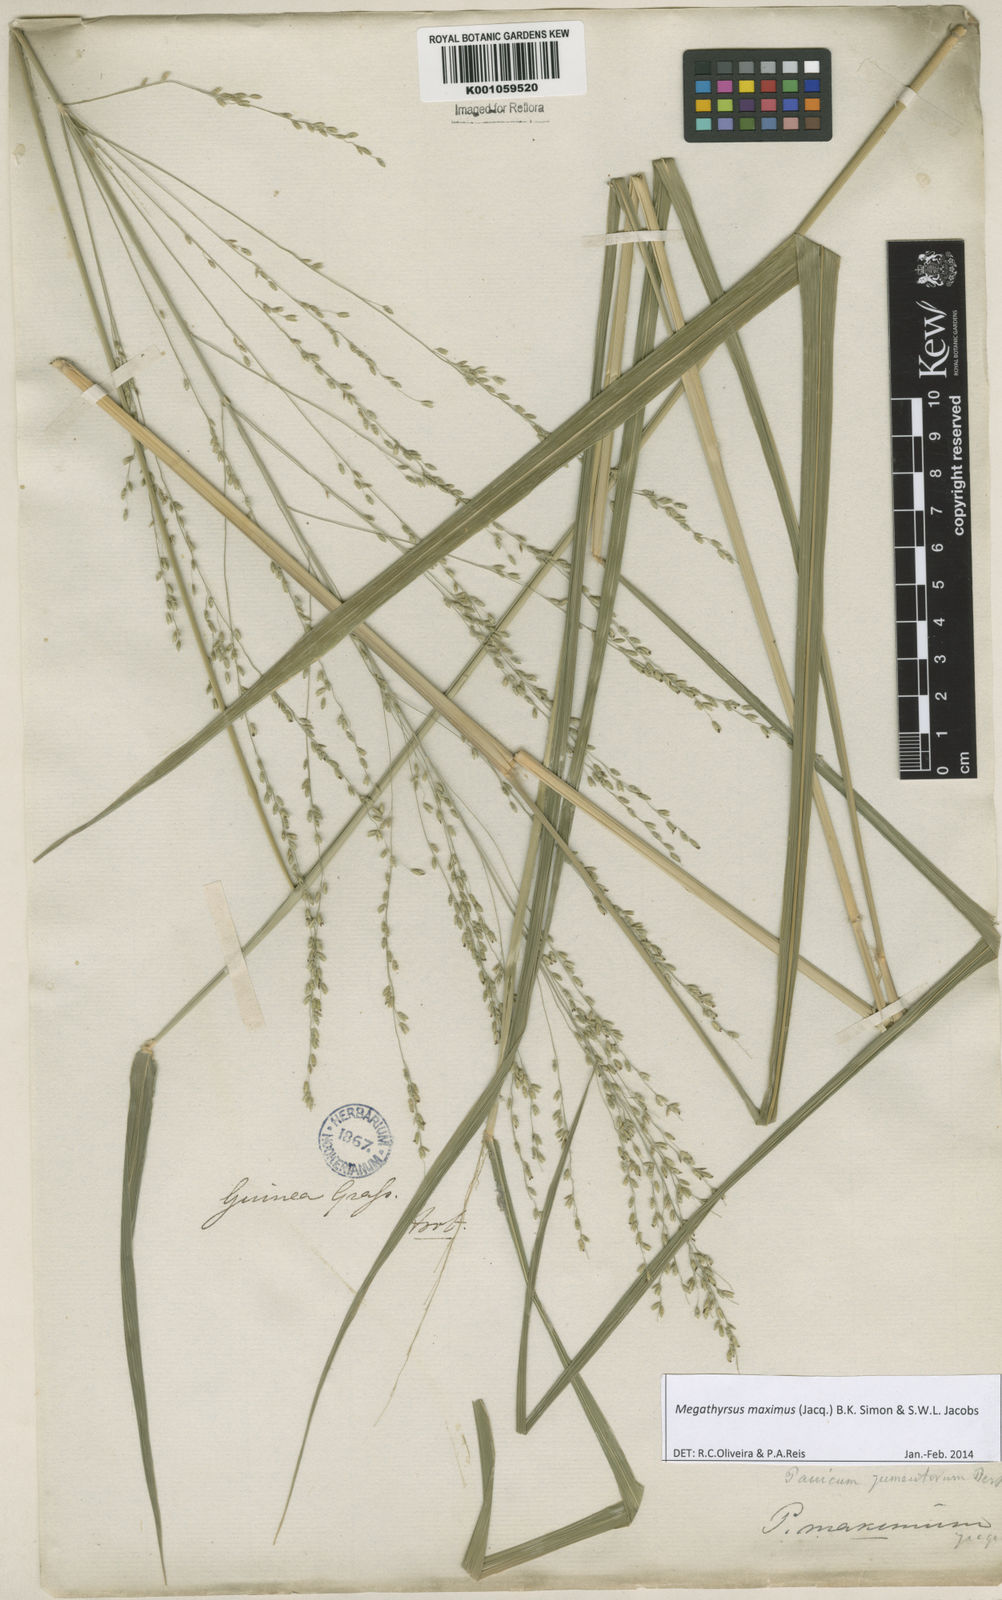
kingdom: Plantae
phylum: Tracheophyta
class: Liliopsida
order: Poales
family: Poaceae
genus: Megathyrsus
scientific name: Megathyrsus maximus
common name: Guineagrass
